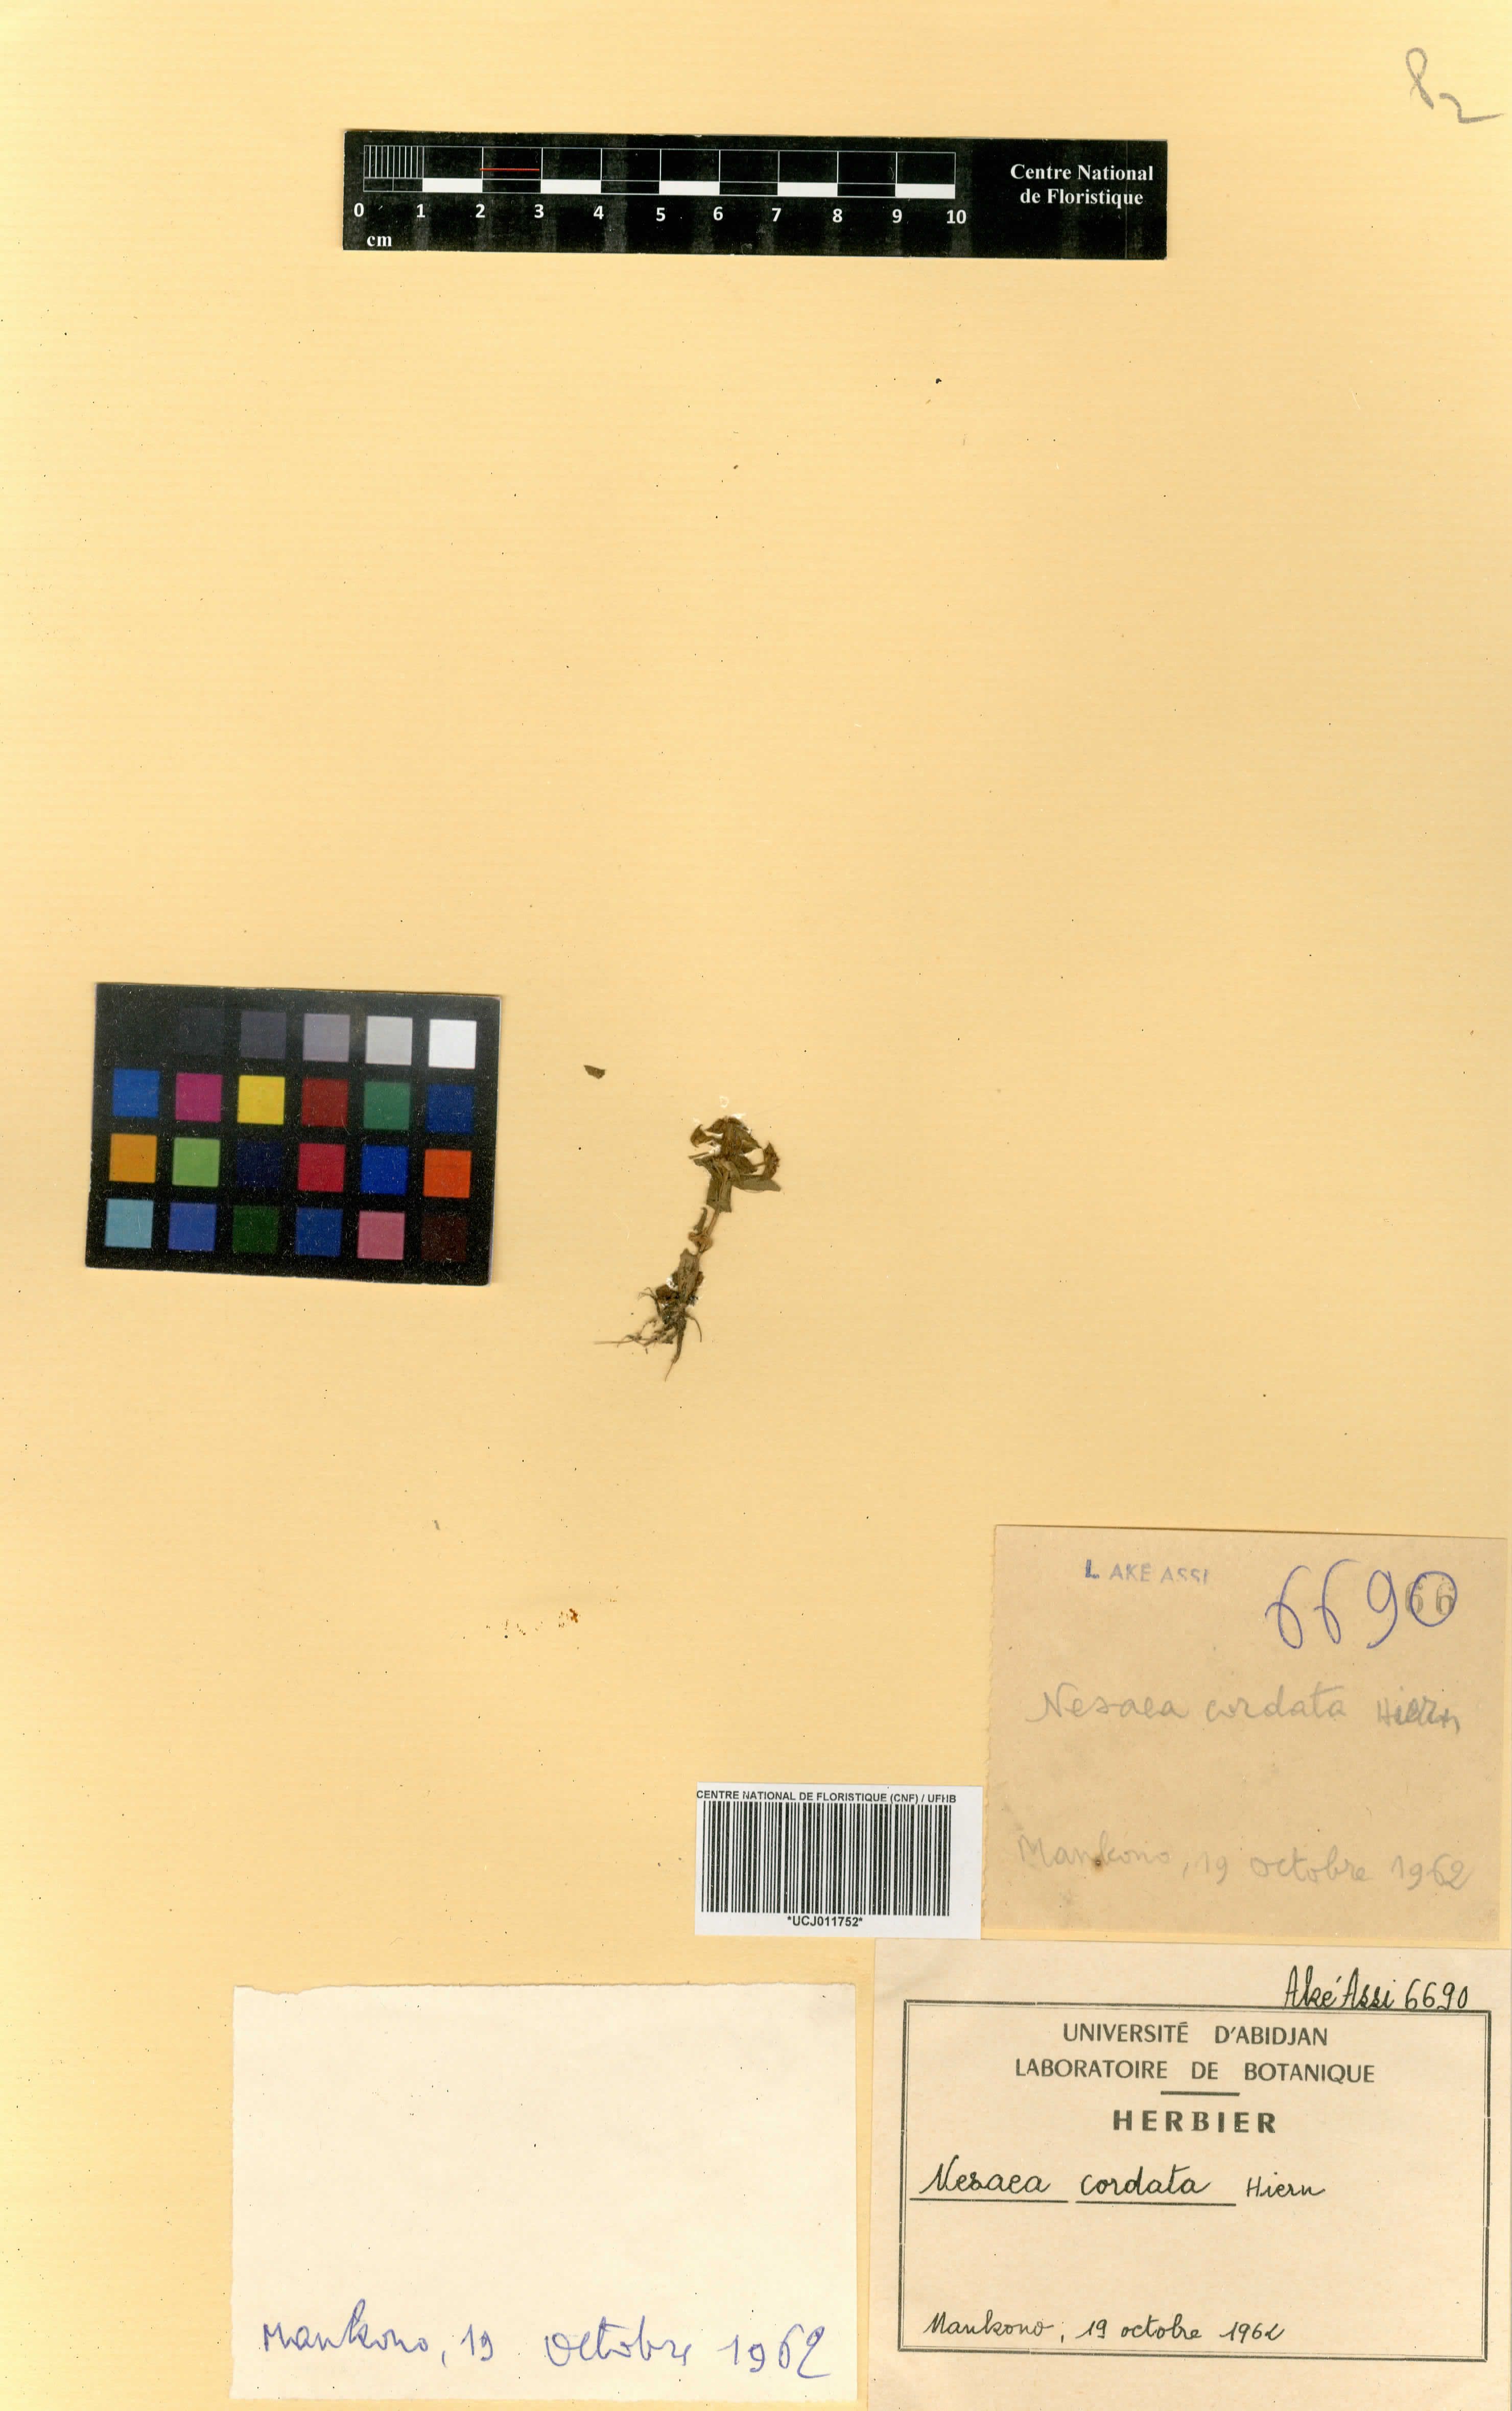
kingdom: Plantae
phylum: Tracheophyta
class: Magnoliopsida
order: Myrtales
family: Lythraceae
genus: Ammannia
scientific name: Ammannia involucrata
